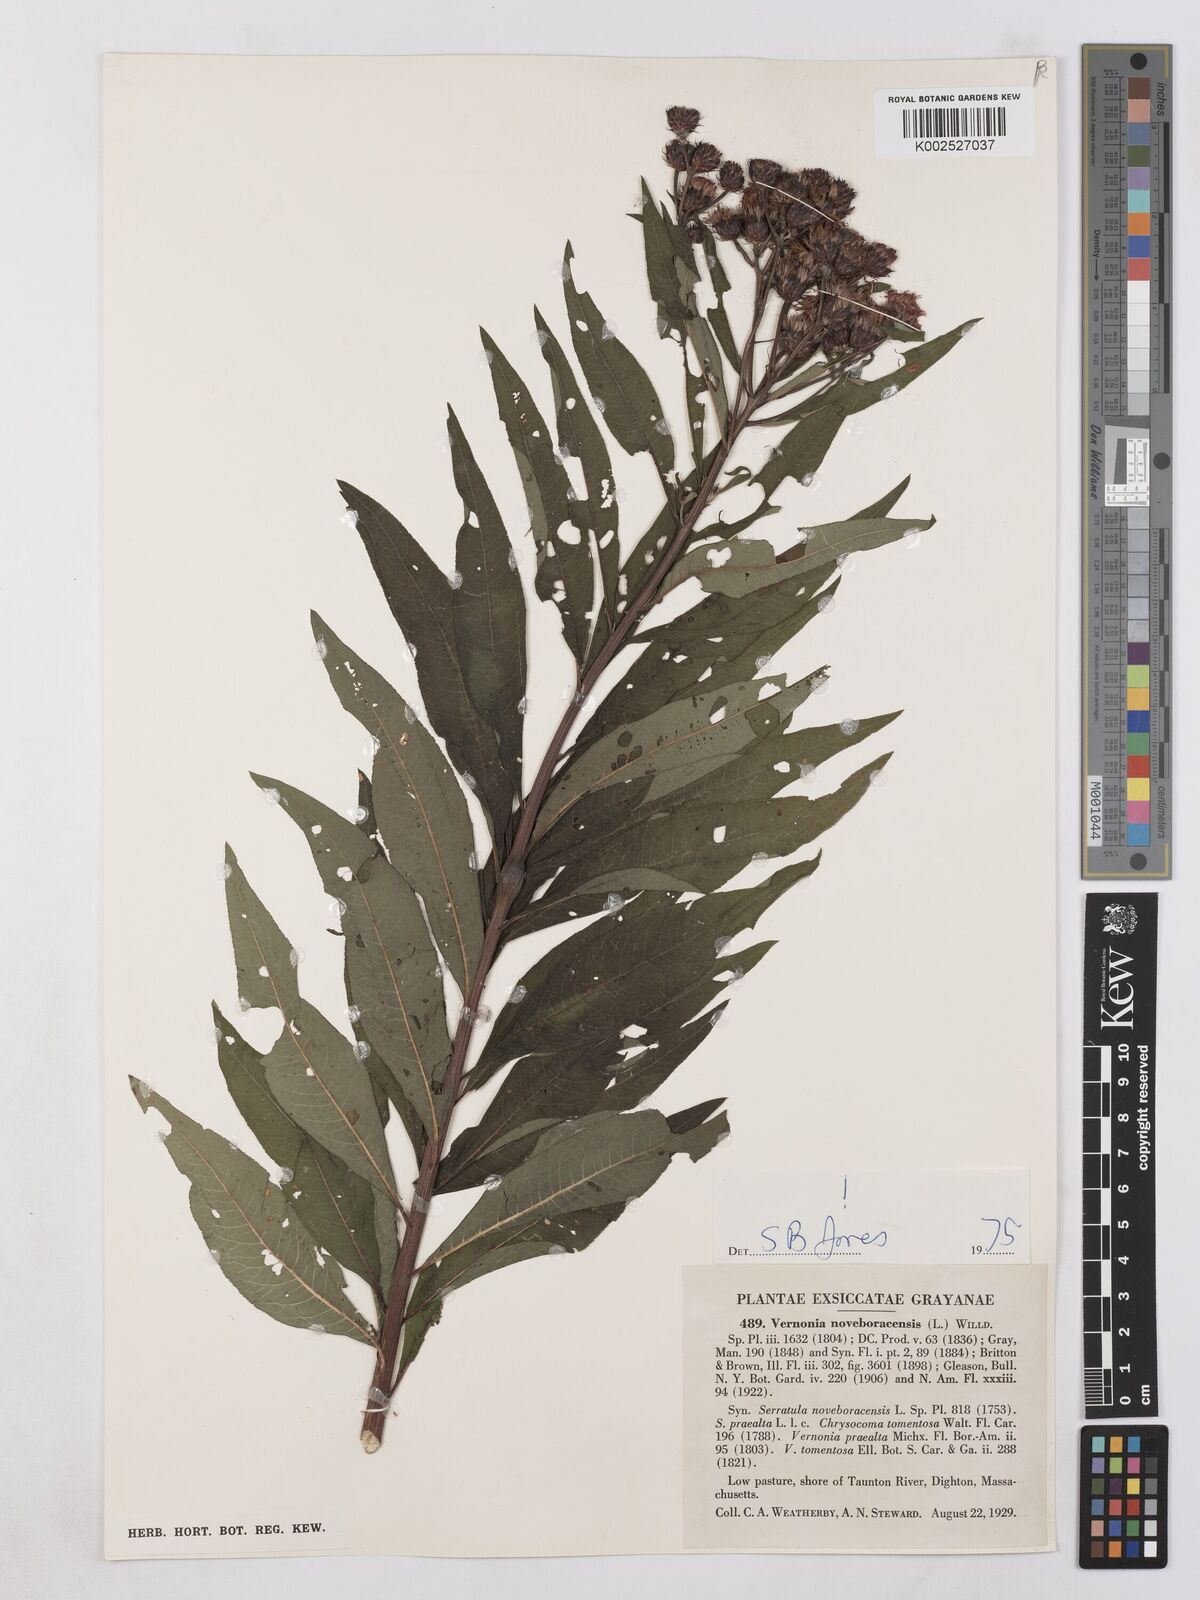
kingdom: Plantae
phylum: Tracheophyta
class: Magnoliopsida
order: Asterales
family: Asteraceae
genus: Vernonia
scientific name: Vernonia noveboracensis
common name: New york ironweed
